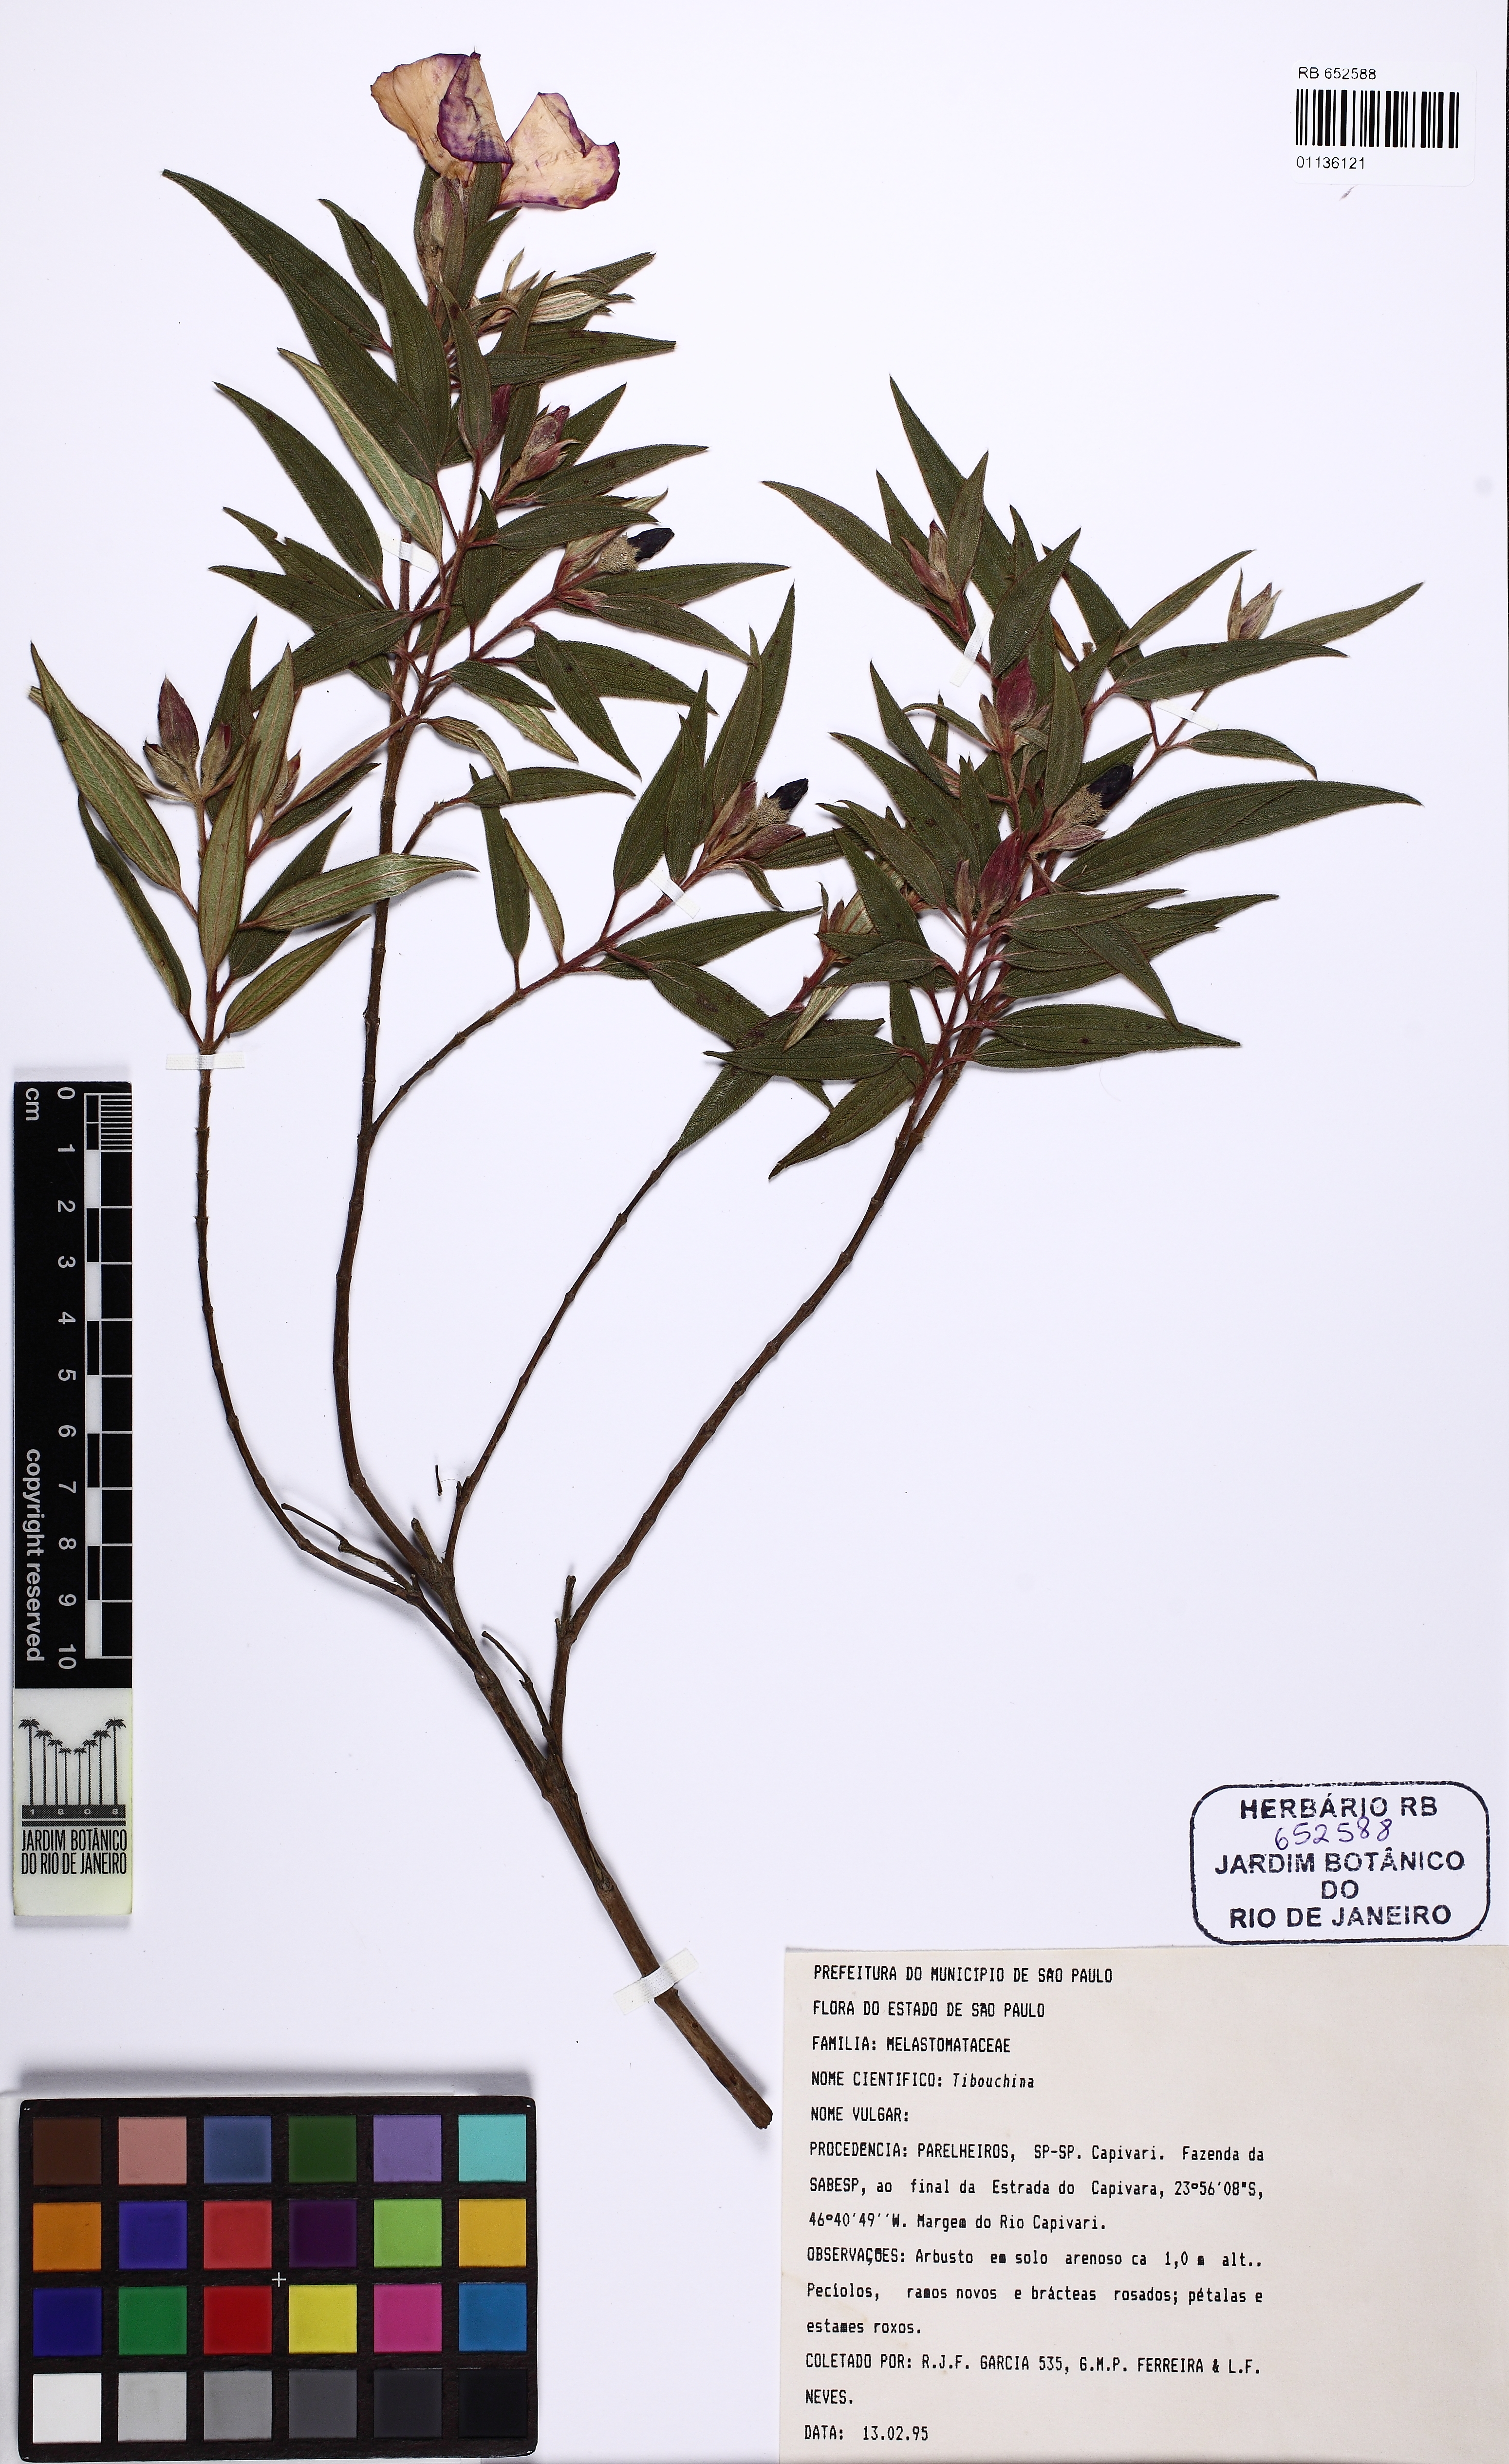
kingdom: Plantae
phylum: Tracheophyta
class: Magnoliopsida
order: Myrtales
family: Melastomataceae
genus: Tibouchina
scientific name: Tibouchina
